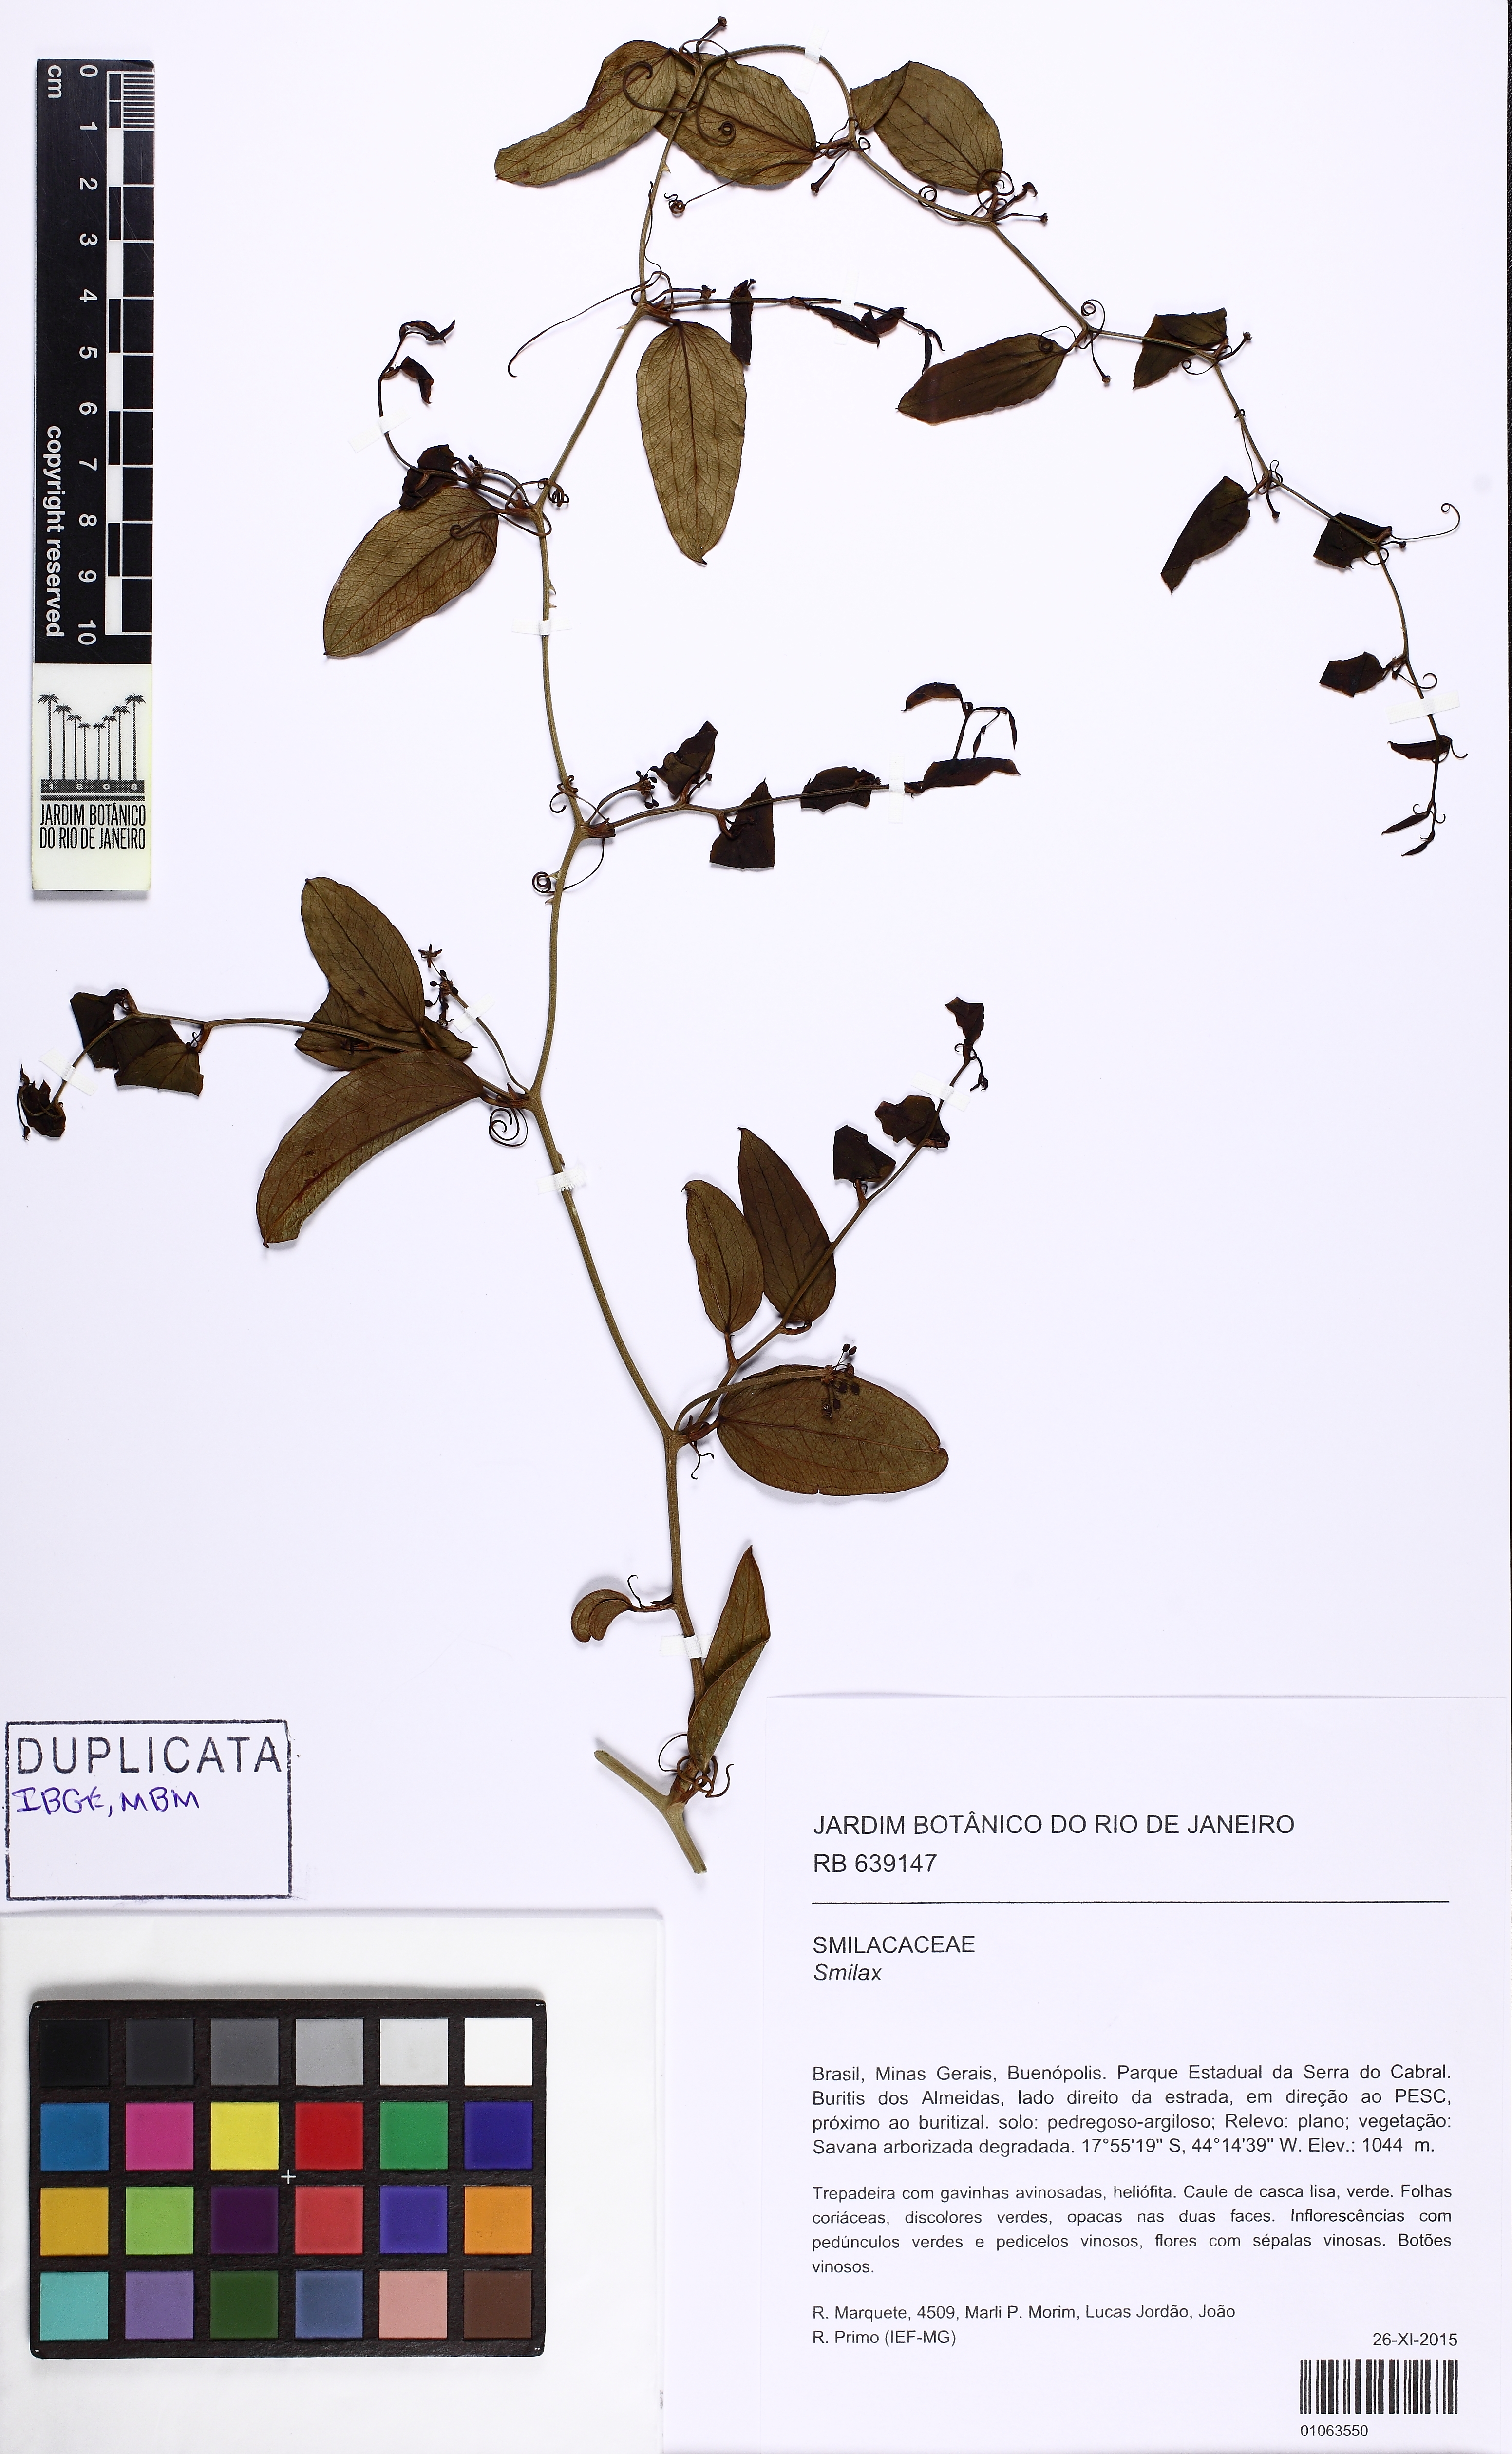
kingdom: Plantae
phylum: Tracheophyta
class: Liliopsida
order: Liliales
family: Smilacaceae
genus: Smilax
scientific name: Smilax
